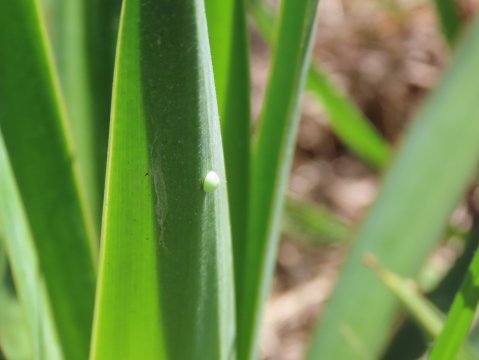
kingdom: Animalia
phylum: Arthropoda
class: Insecta
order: Lepidoptera
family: Hesperiidae
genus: Megathymus
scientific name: Megathymus yuccae
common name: Yucca Giant-Skipper
